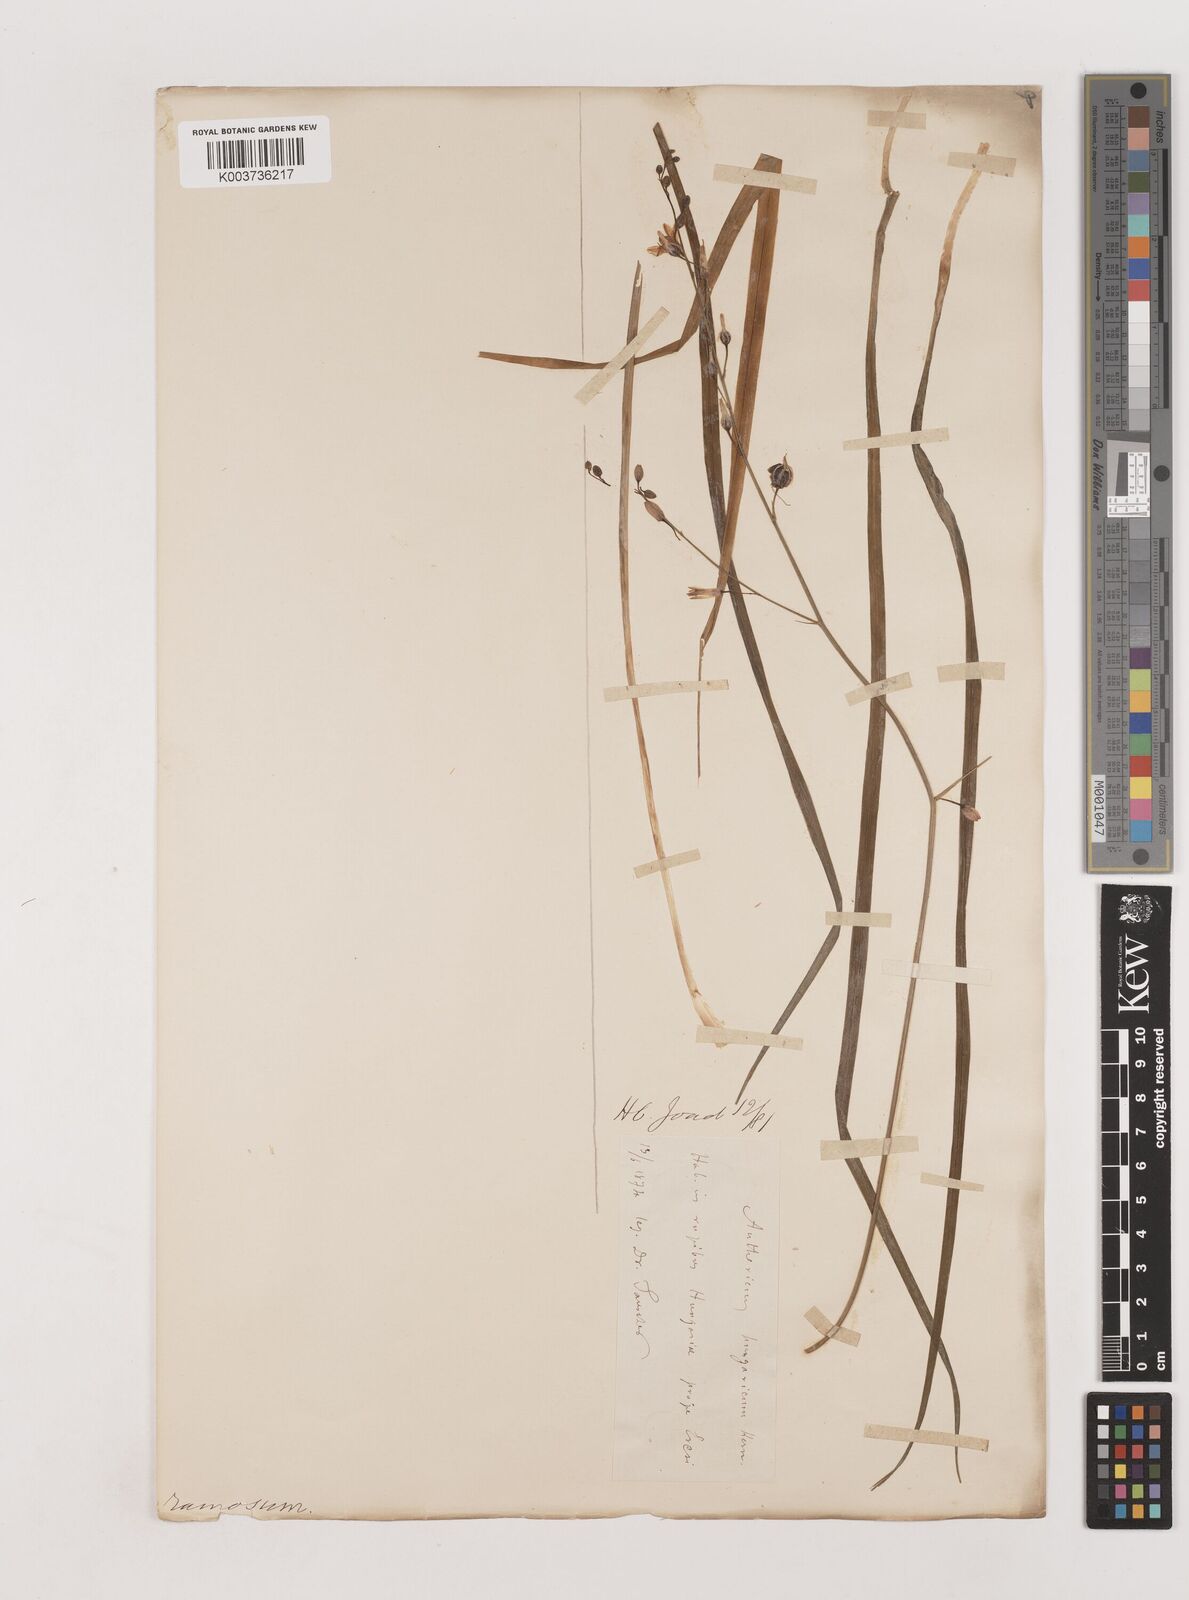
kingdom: Plantae
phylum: Tracheophyta
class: Liliopsida
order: Asparagales
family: Asparagaceae
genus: Anthericum
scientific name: Anthericum
